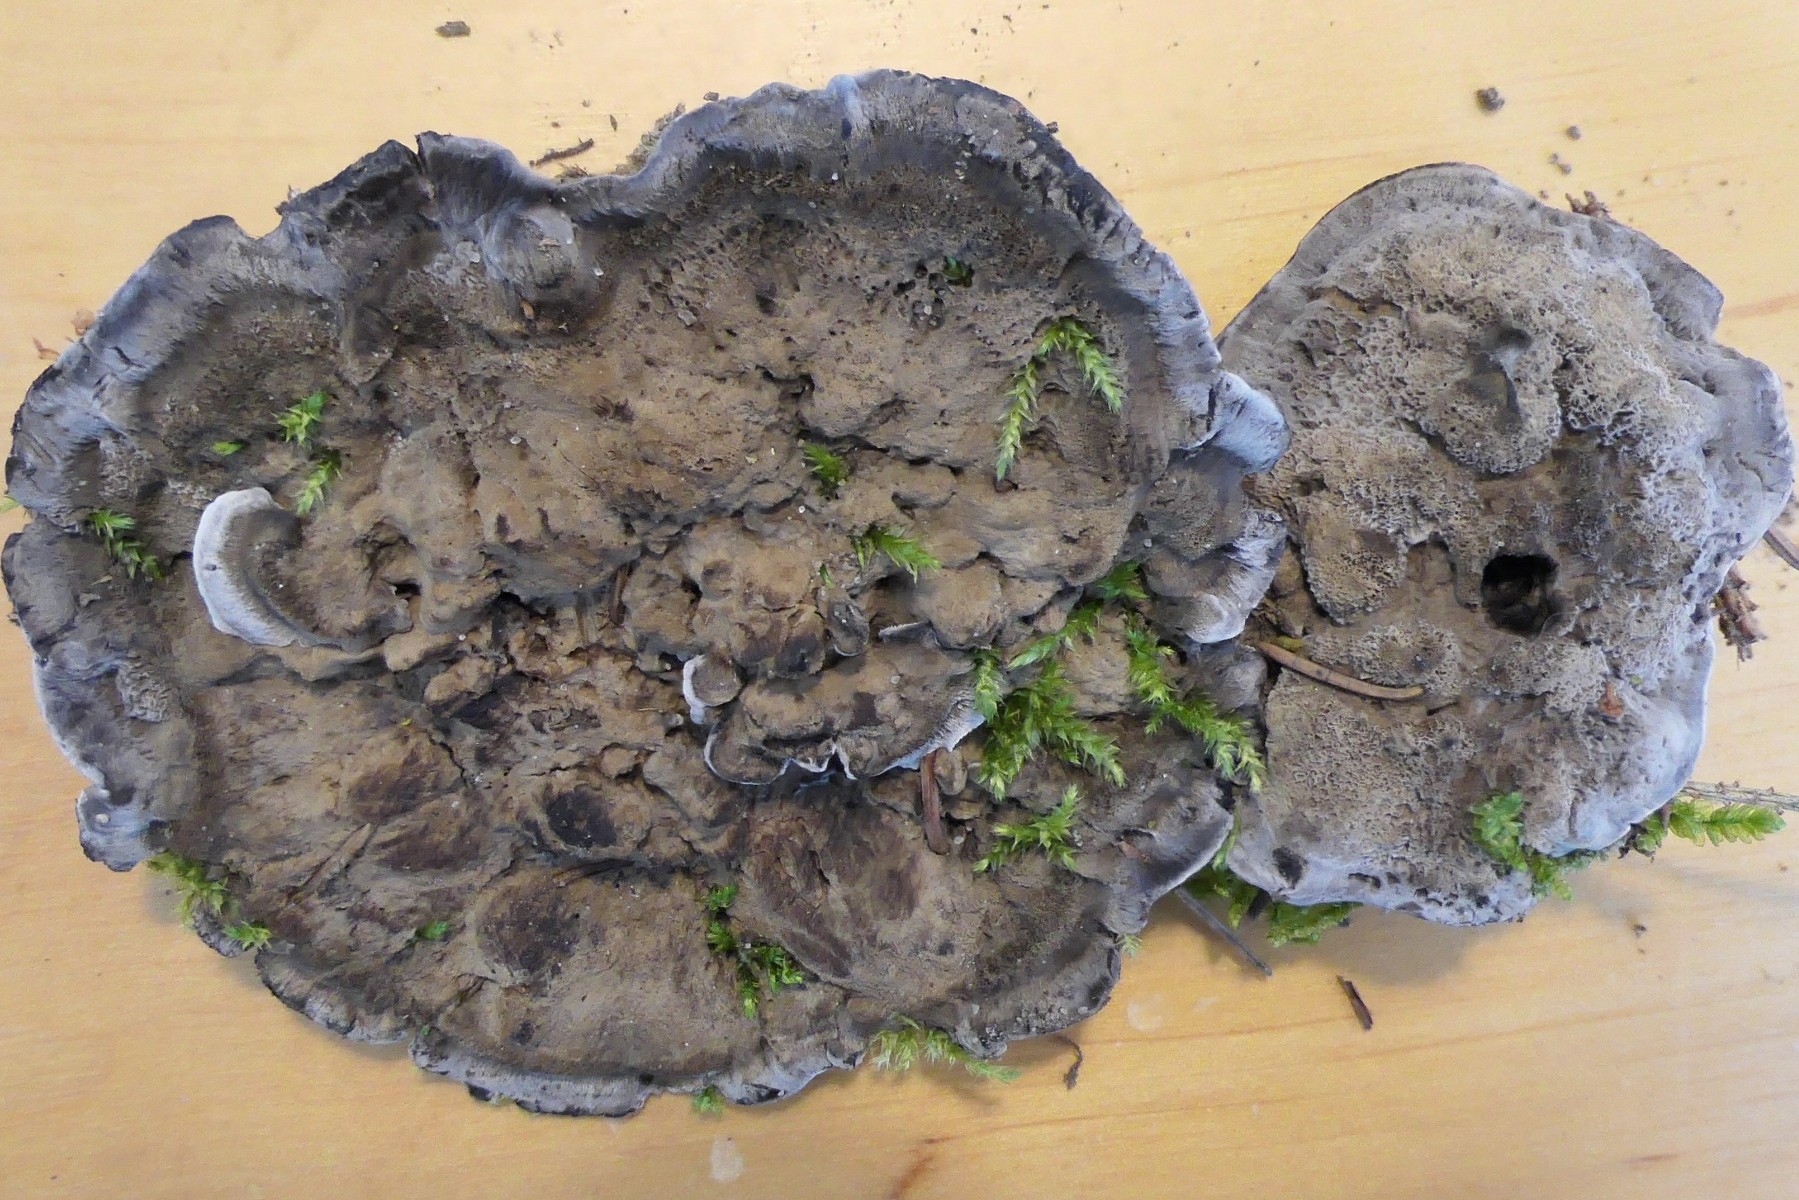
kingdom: Fungi
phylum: Basidiomycota
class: Agaricomycetes
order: Thelephorales
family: Thelephoraceae
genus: Phellodon
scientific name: Phellodon
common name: mørk duftpigsvamp
